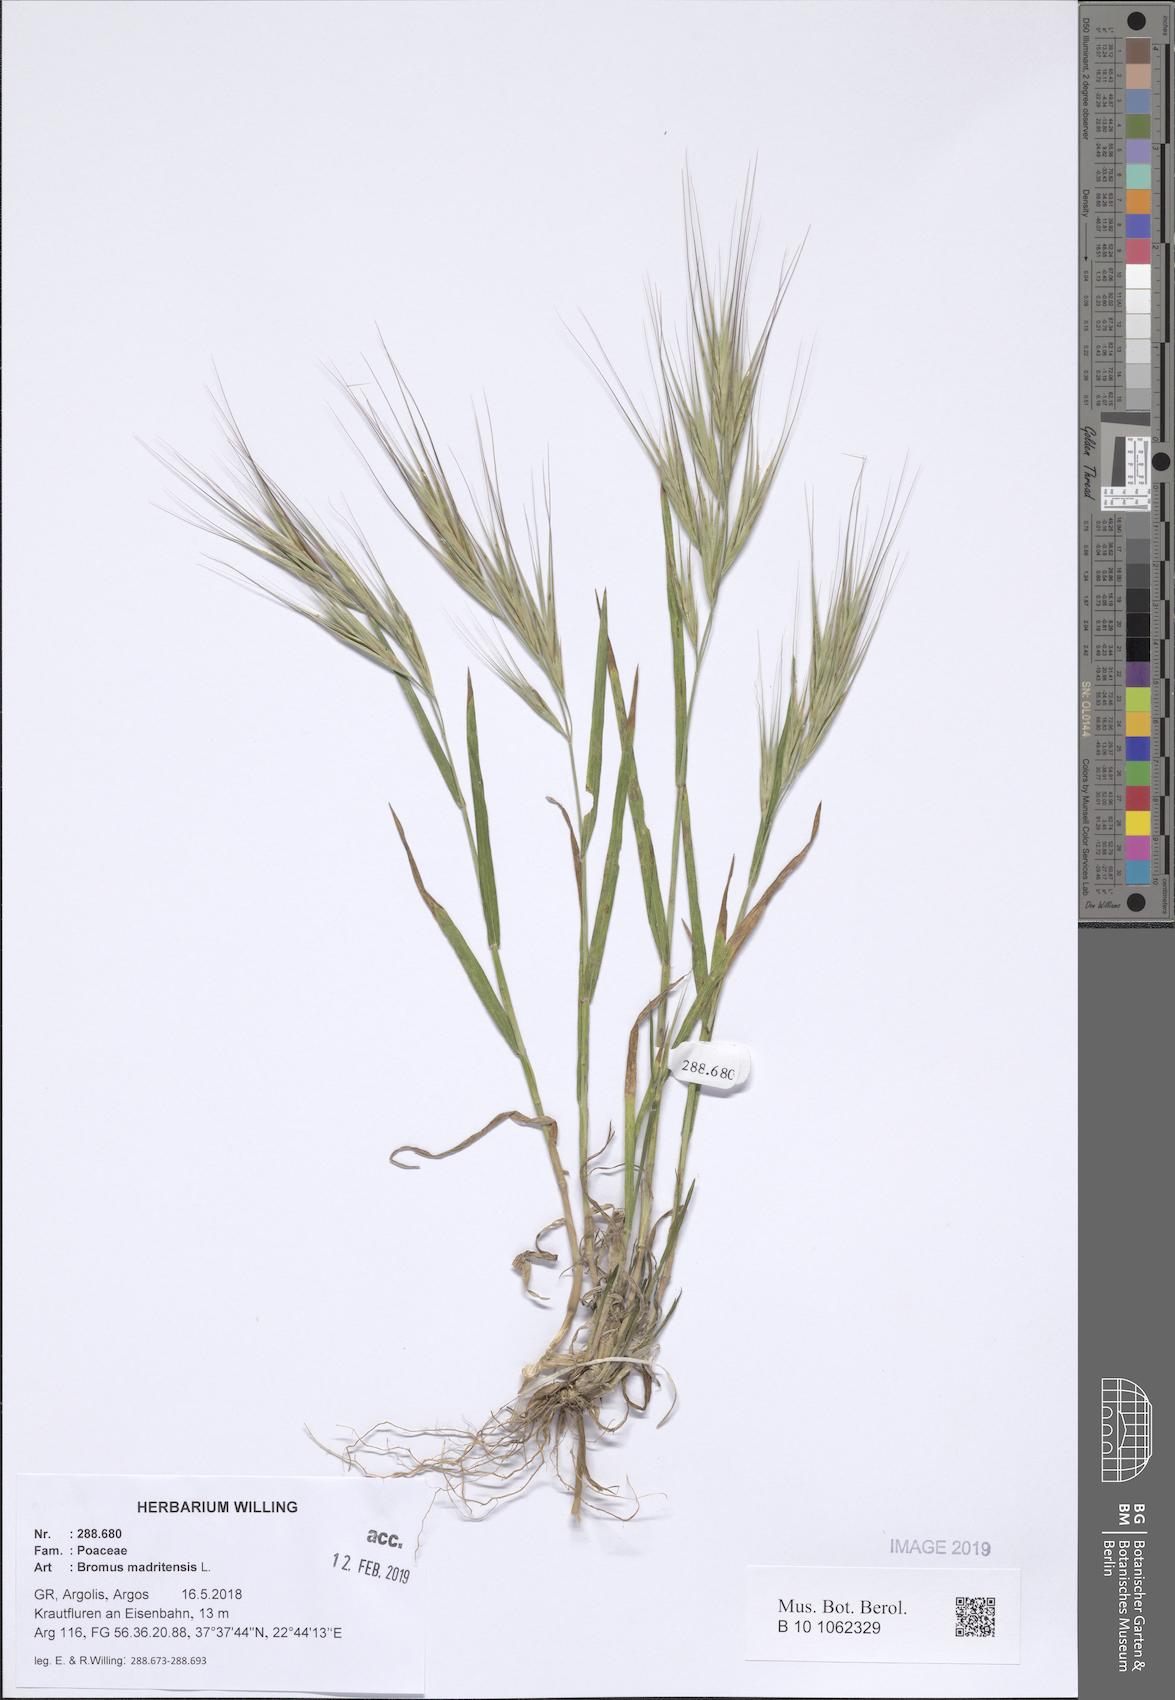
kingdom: Plantae
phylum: Tracheophyta
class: Liliopsida
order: Poales
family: Poaceae
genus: Bromus
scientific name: Bromus madritensis
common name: Compact brome
